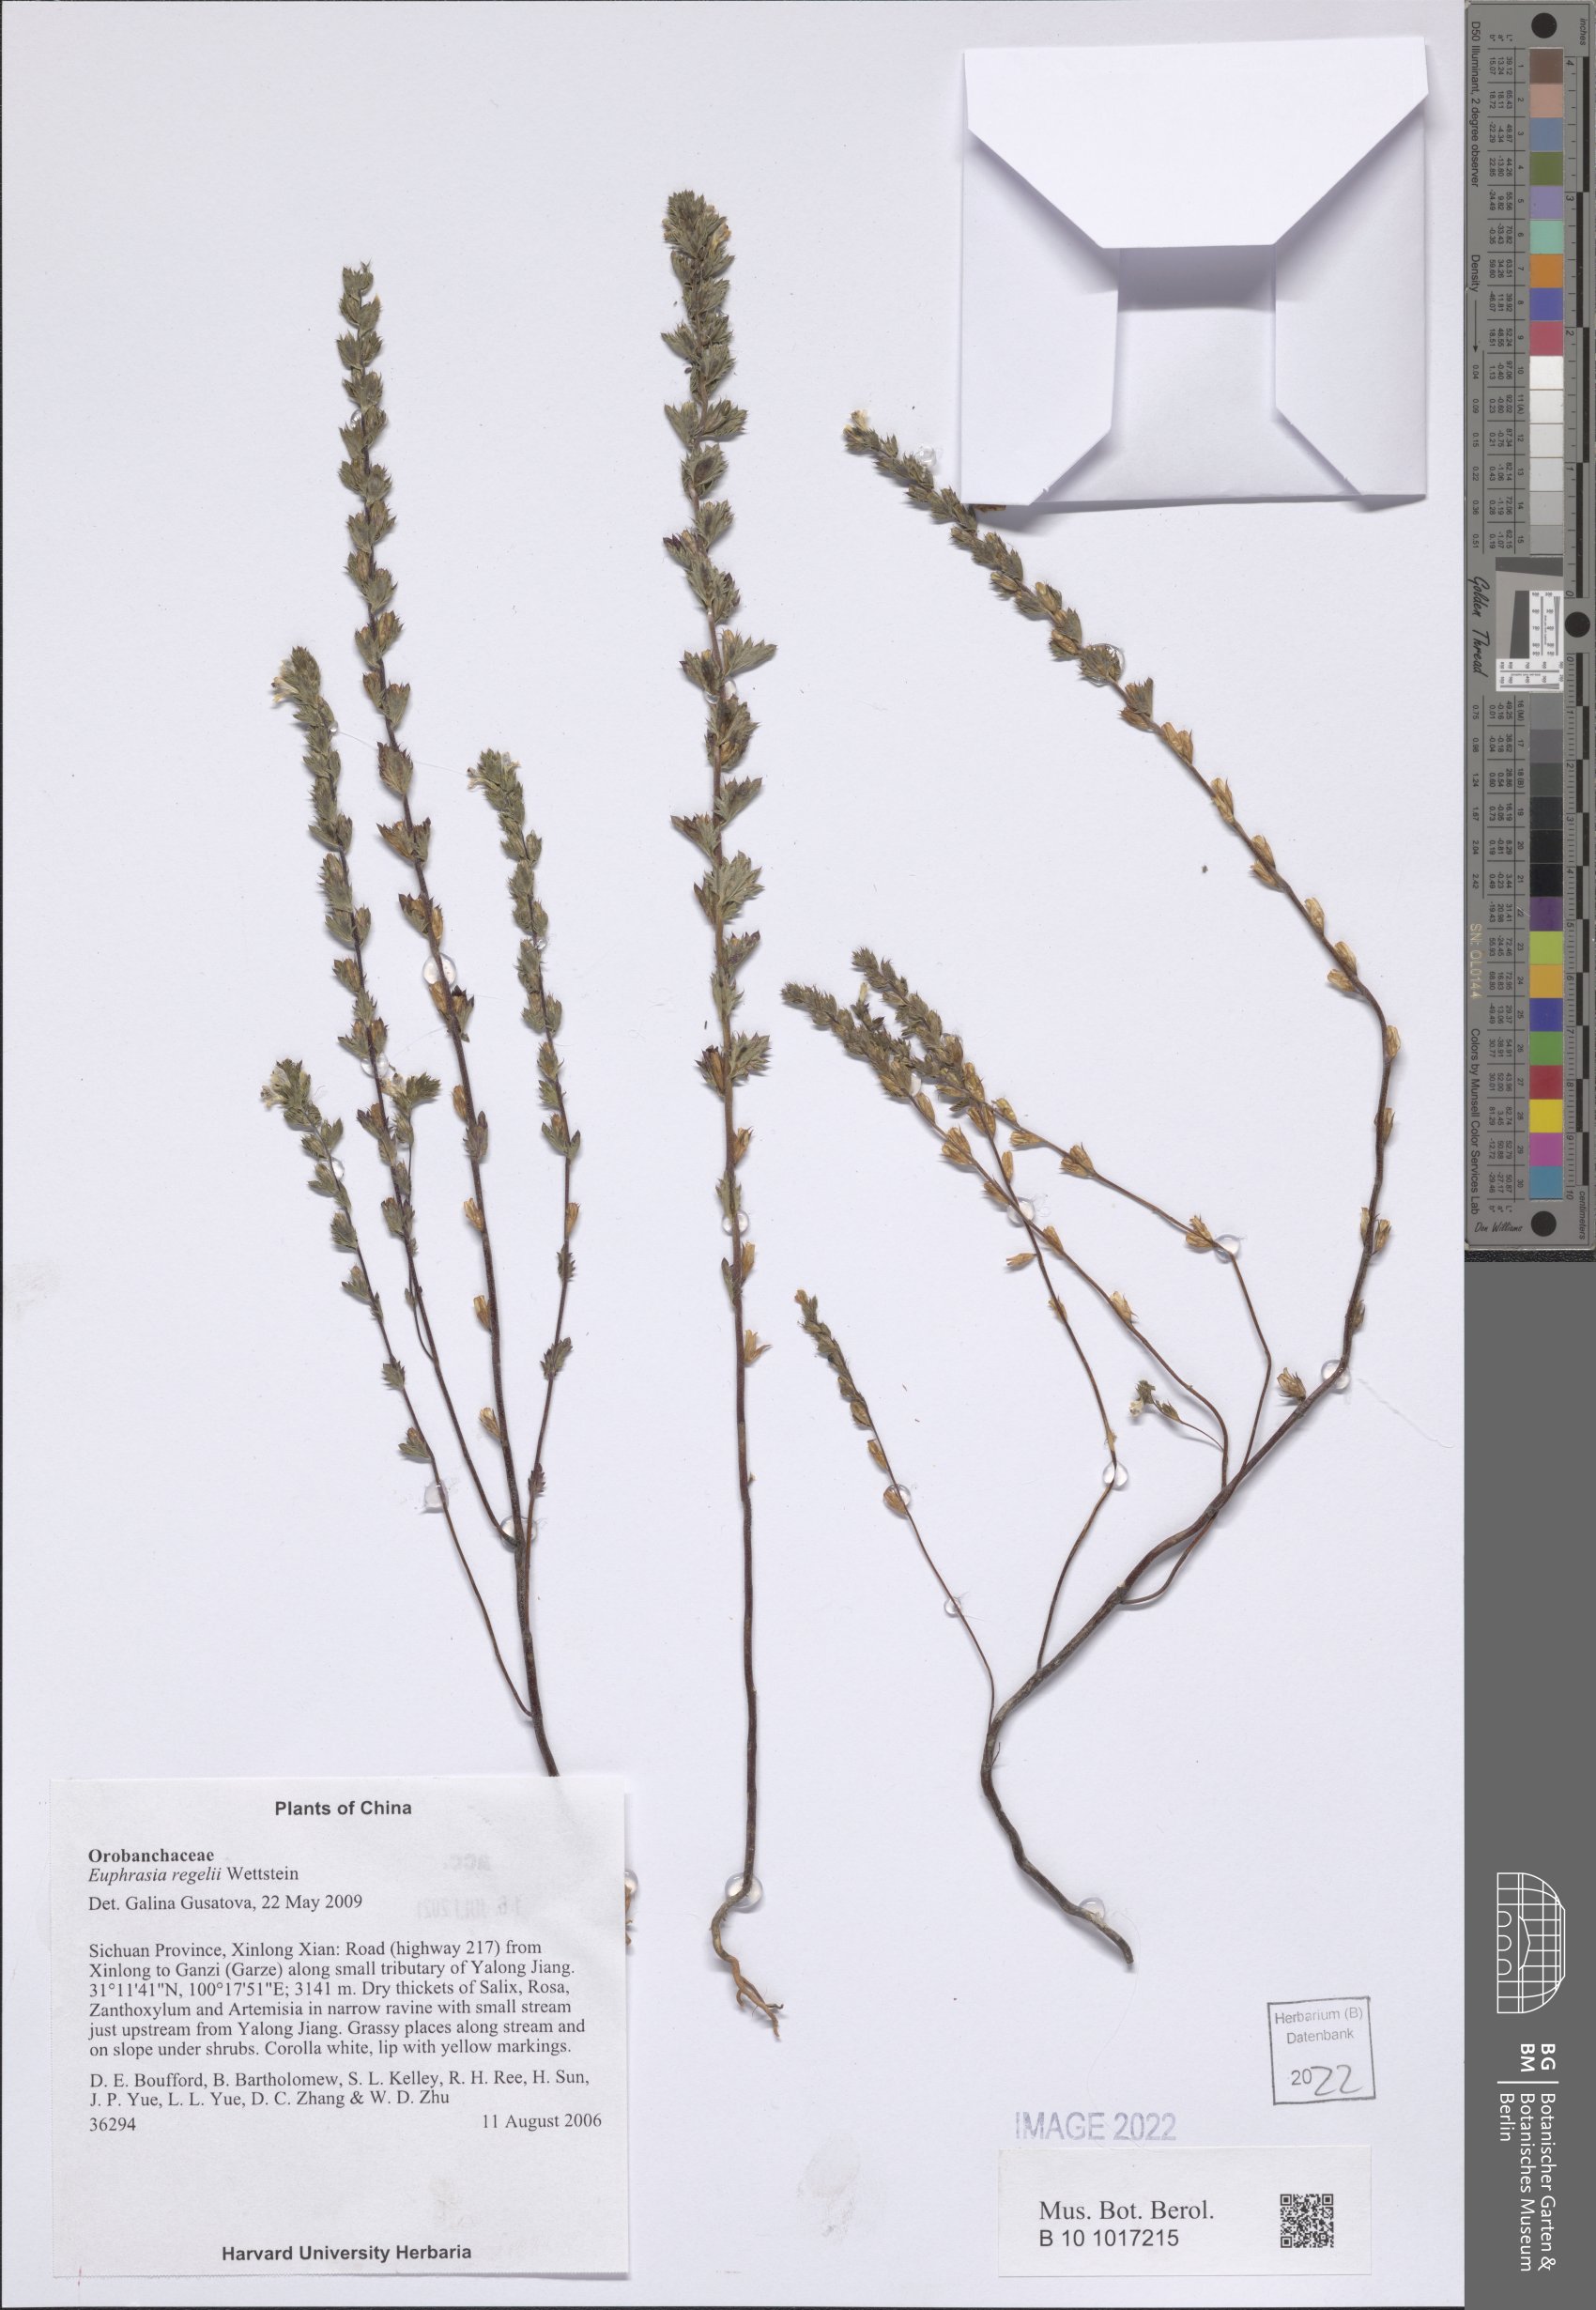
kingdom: Plantae
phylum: Tracheophyta
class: Magnoliopsida
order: Lamiales
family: Orobanchaceae
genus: Euphrasia
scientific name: Euphrasia regelii
